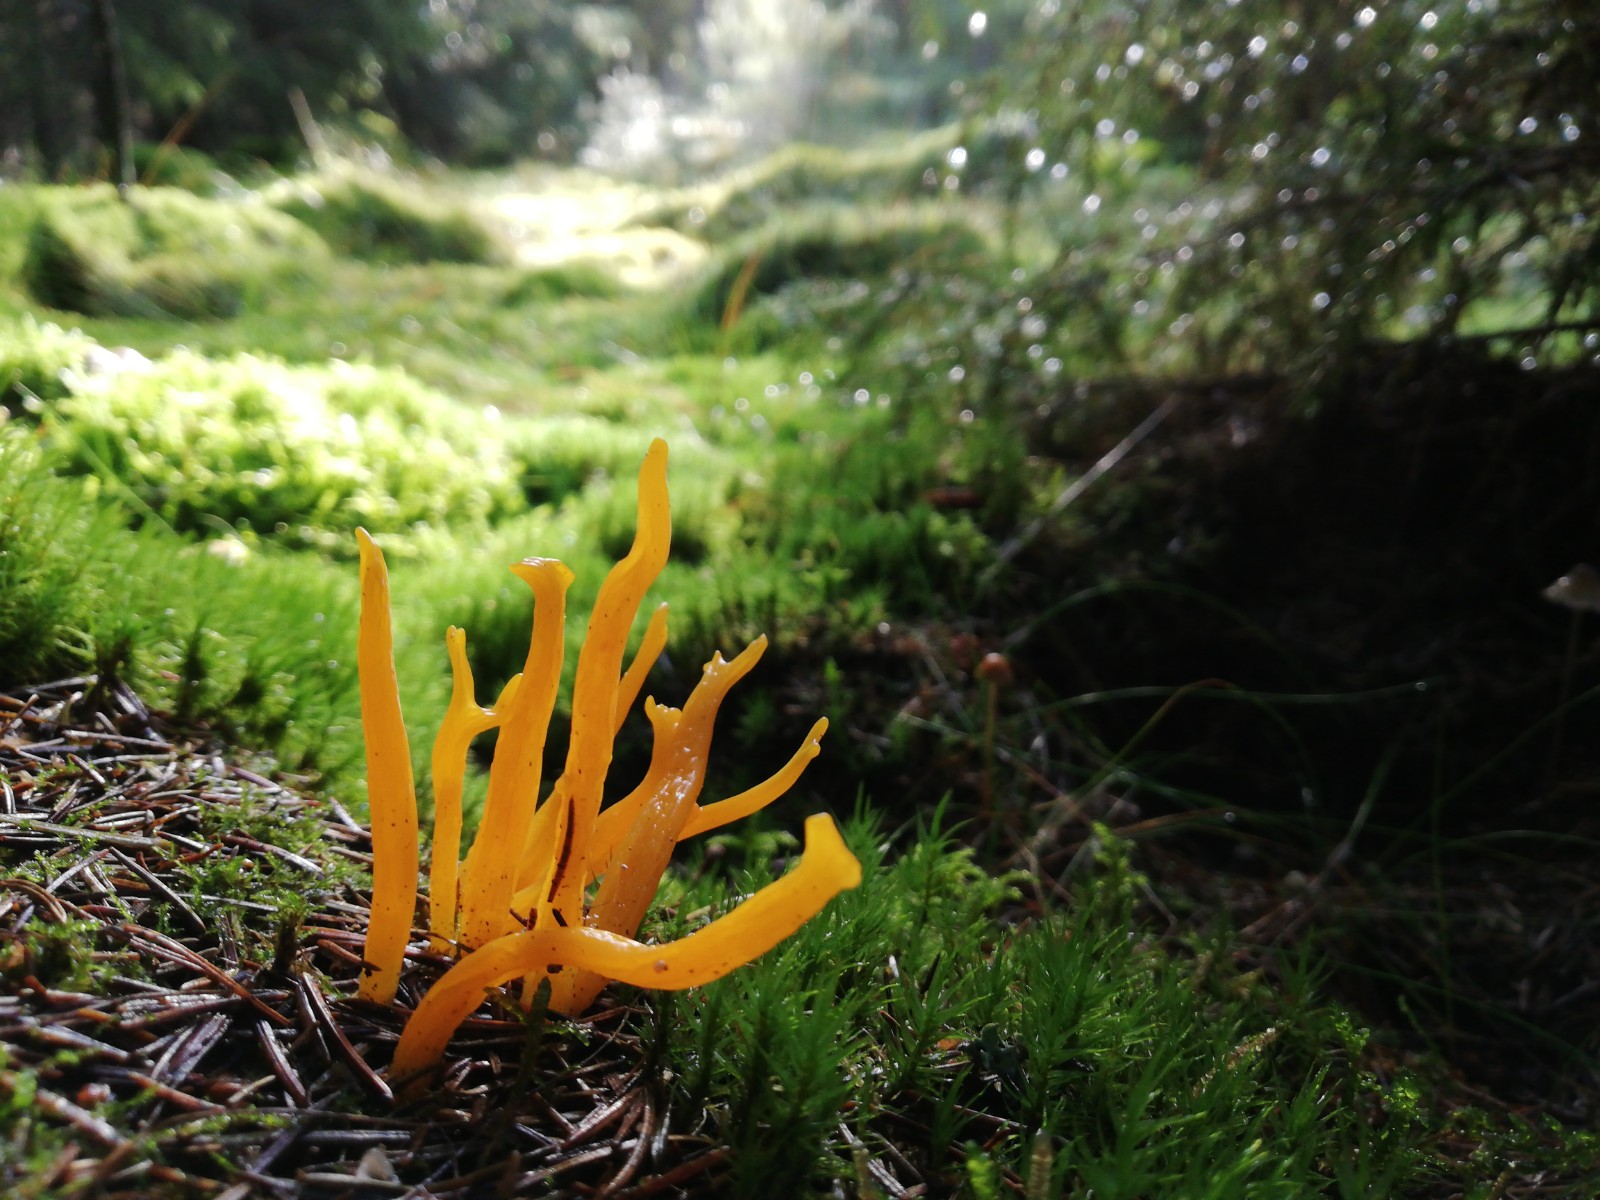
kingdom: Fungi
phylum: Basidiomycota
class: Dacrymycetes
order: Dacrymycetales
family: Dacrymycetaceae
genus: Calocera
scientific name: Calocera viscosa
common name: almindelig guldgaffel
